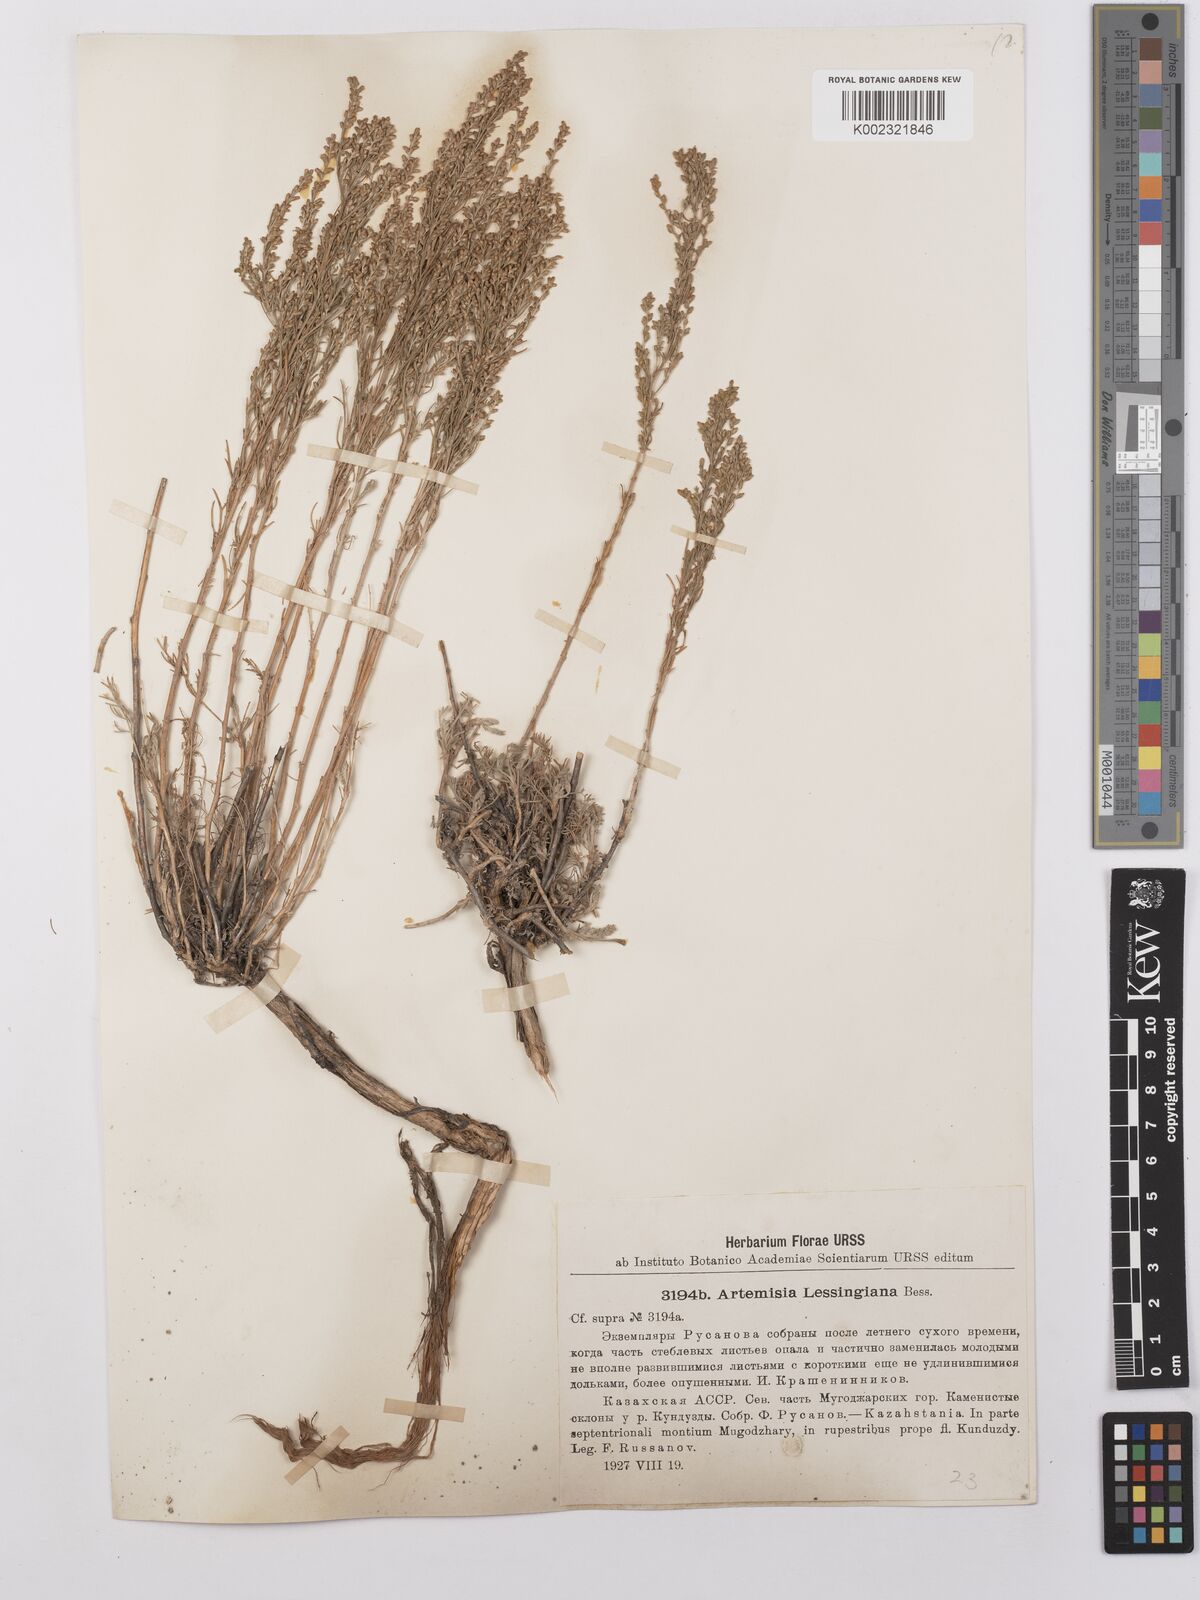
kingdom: Plantae
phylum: Tracheophyta
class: Magnoliopsida
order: Asterales
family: Asteraceae
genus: Artemisia
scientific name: Artemisia lessingiana
